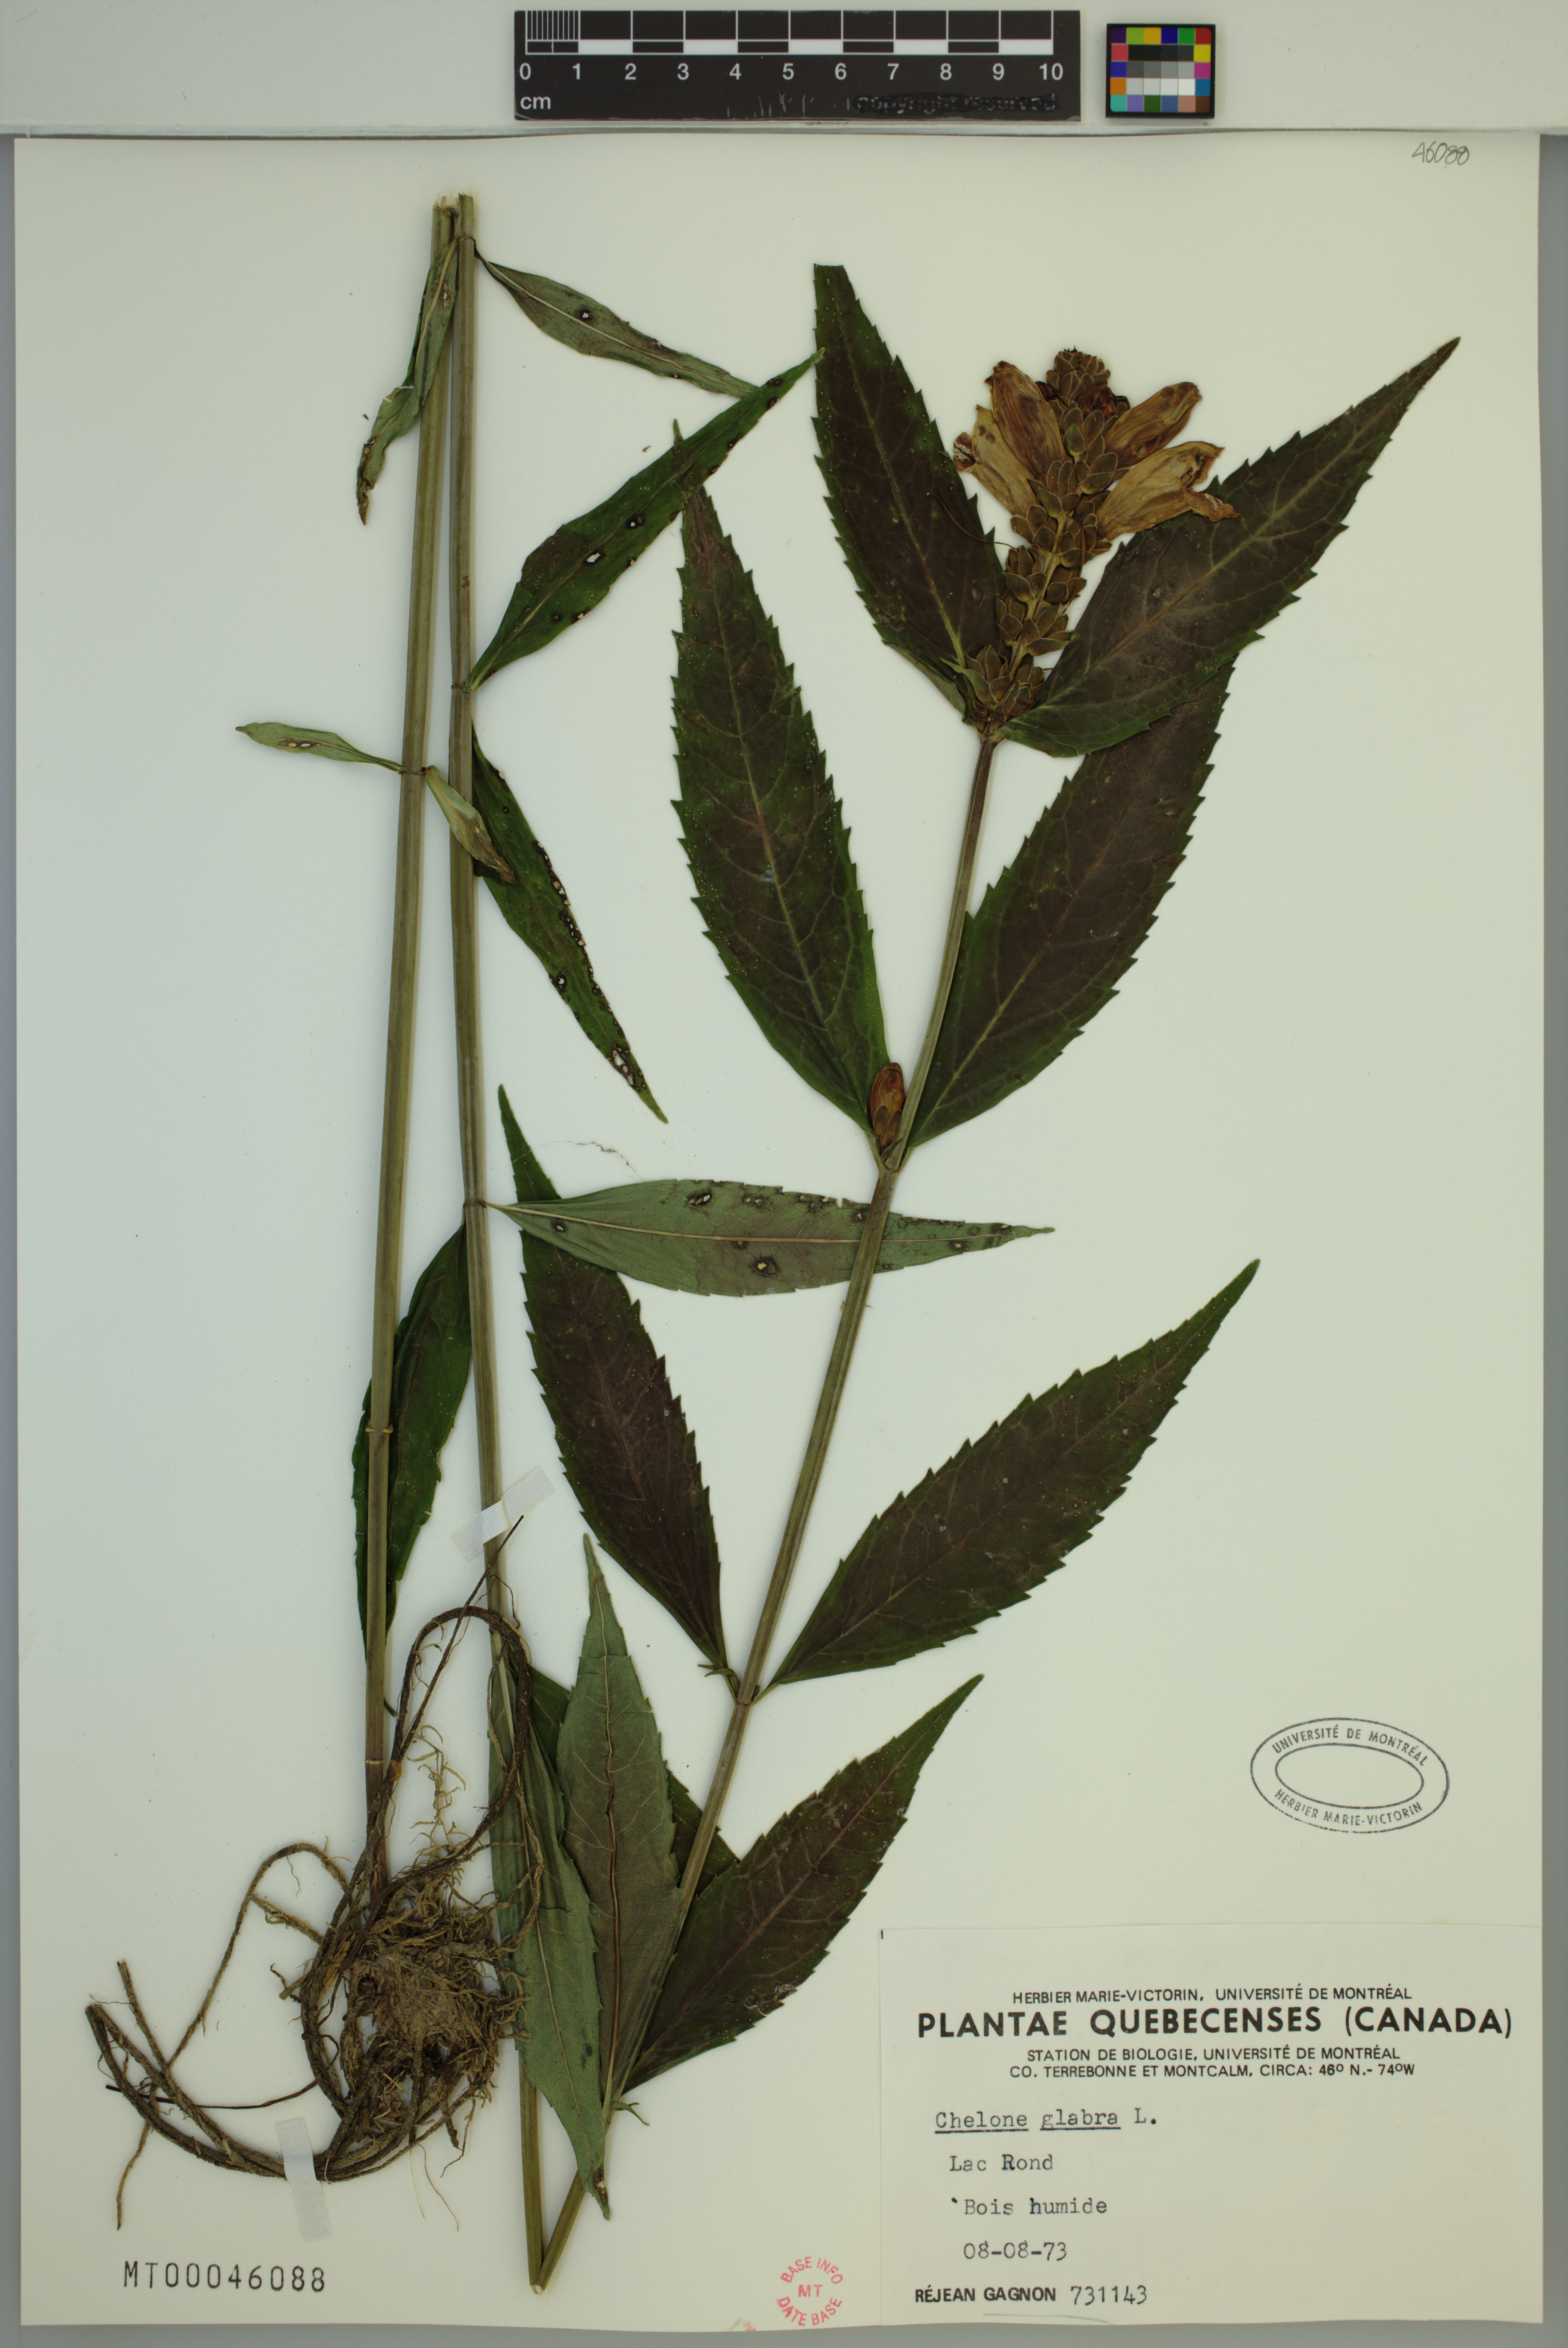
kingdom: Plantae
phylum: Tracheophyta
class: Magnoliopsida
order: Lamiales
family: Plantaginaceae
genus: Chelone
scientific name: Chelone glabra
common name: Snakehead
